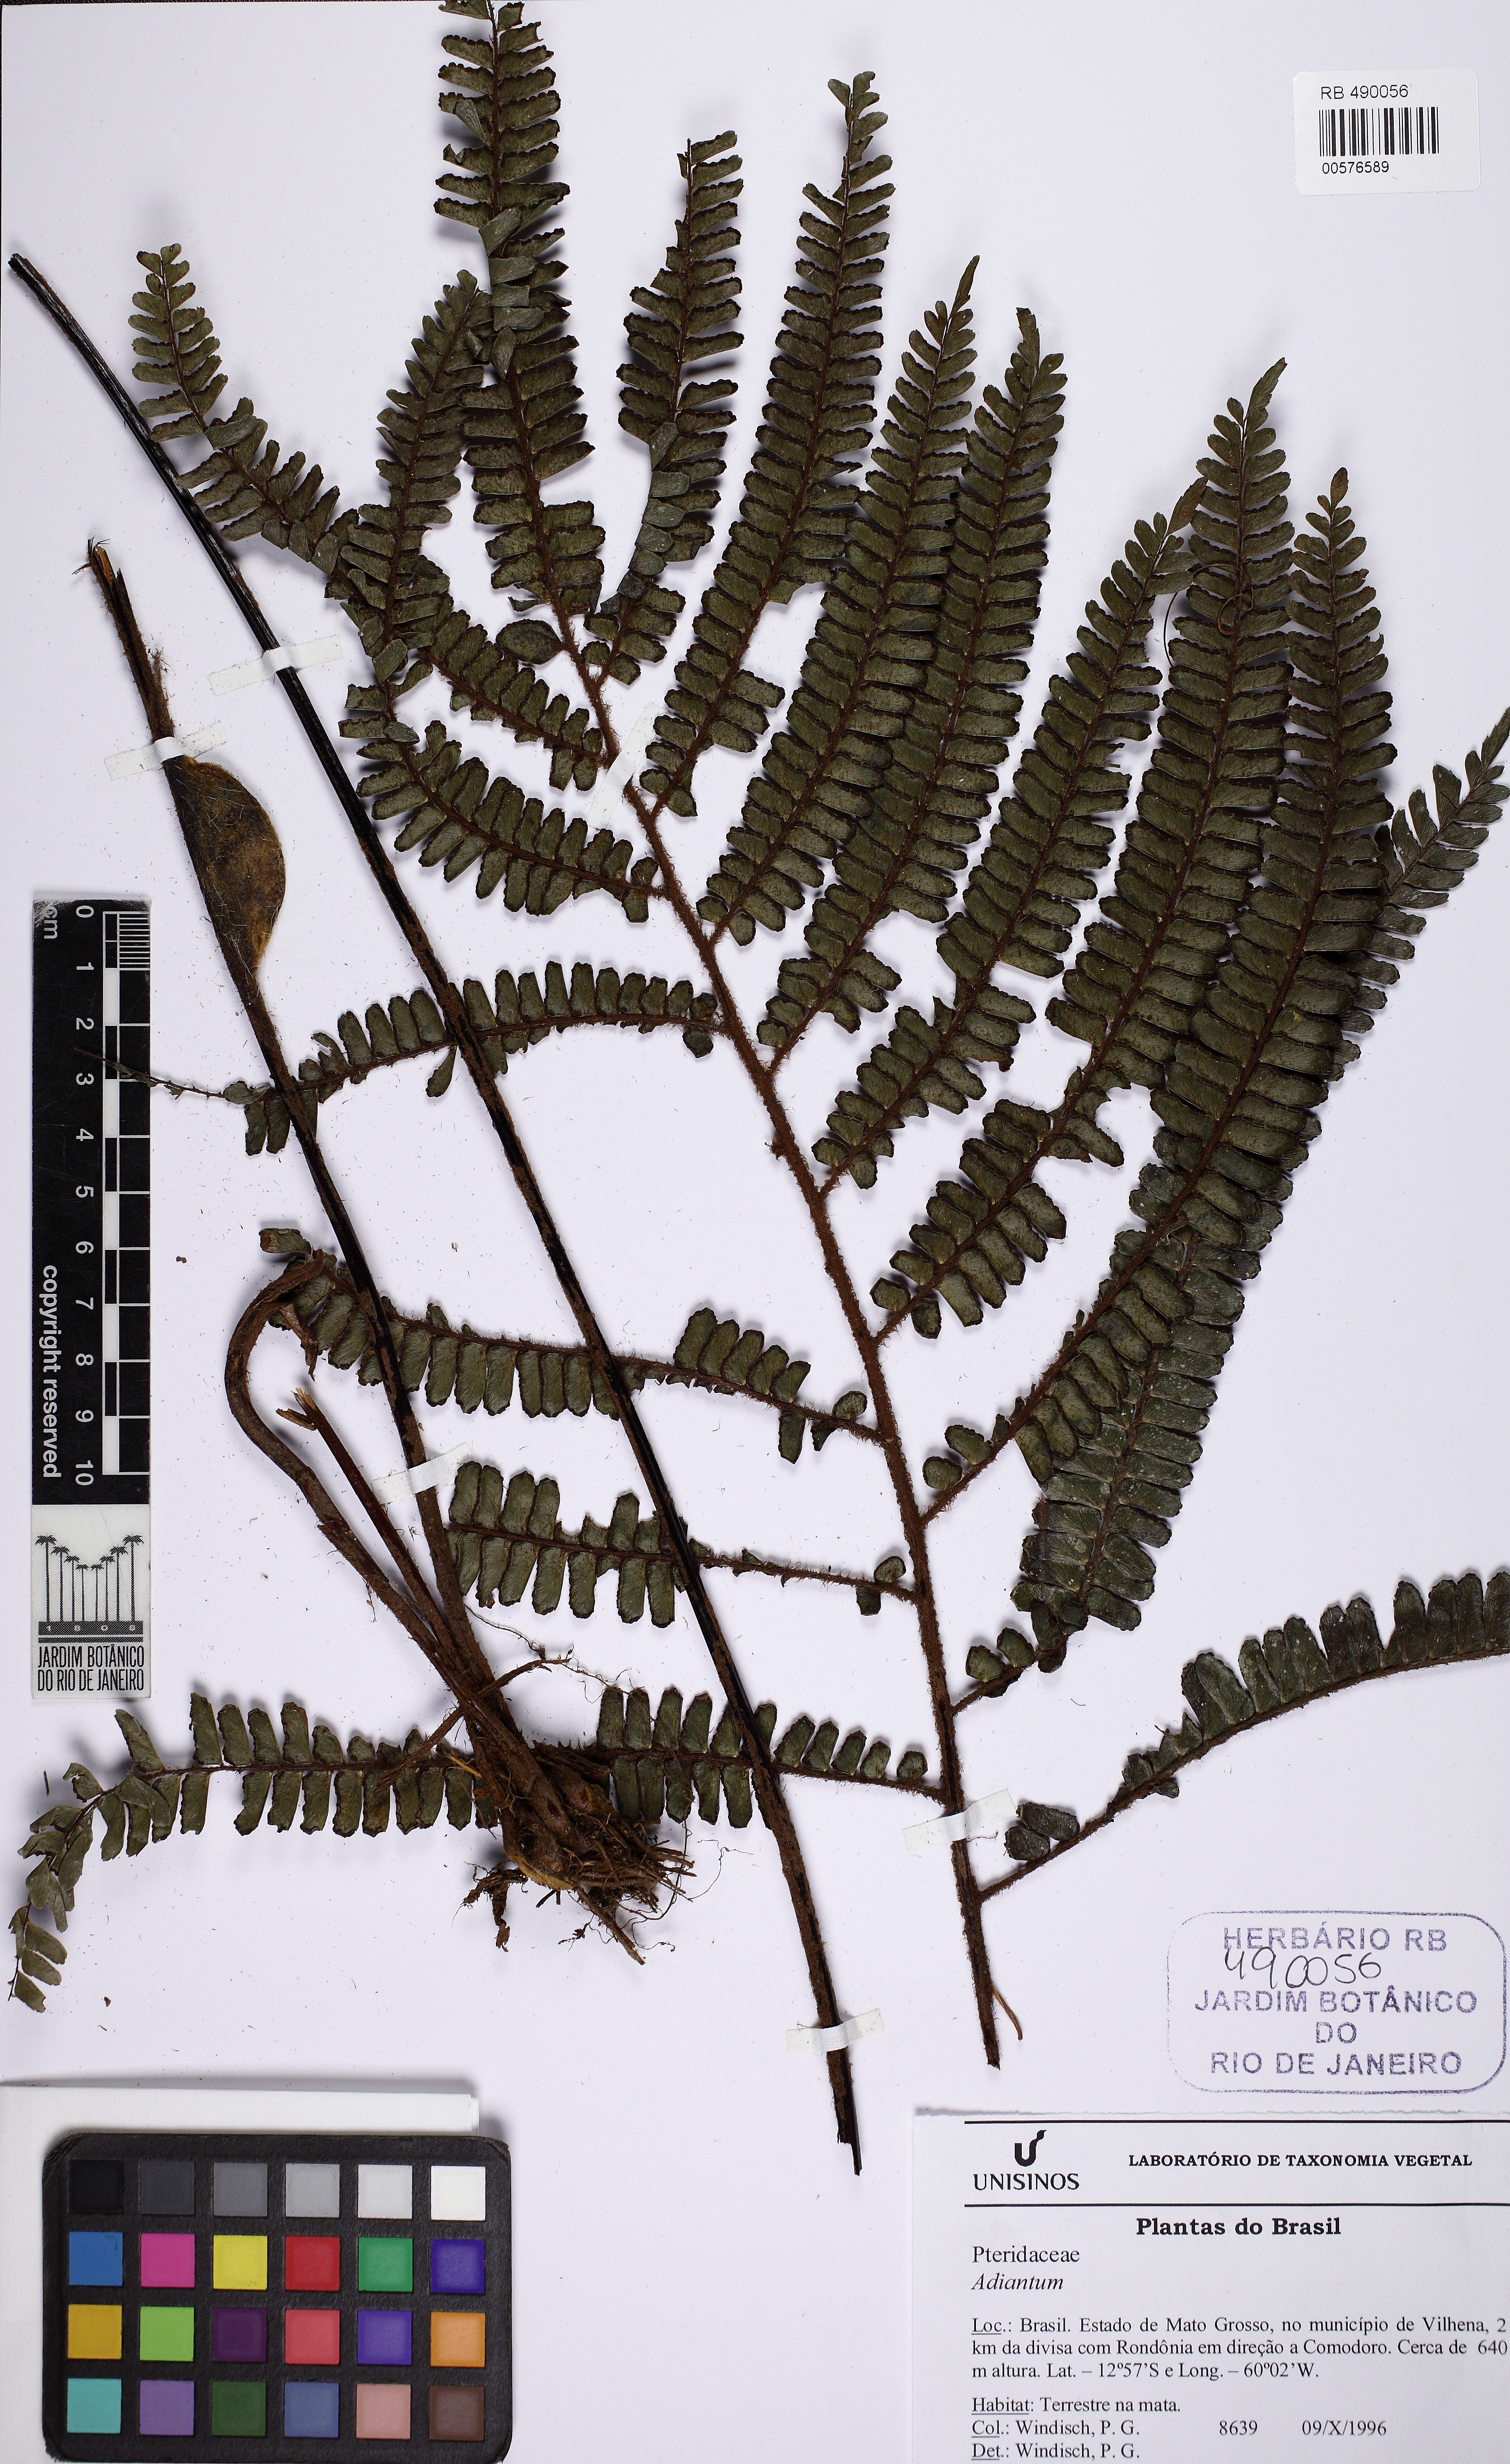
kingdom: Plantae
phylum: Tracheophyta
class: Polypodiopsida
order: Polypodiales
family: Pteridaceae
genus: Adiantum
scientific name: Adiantum cinnamomeum
